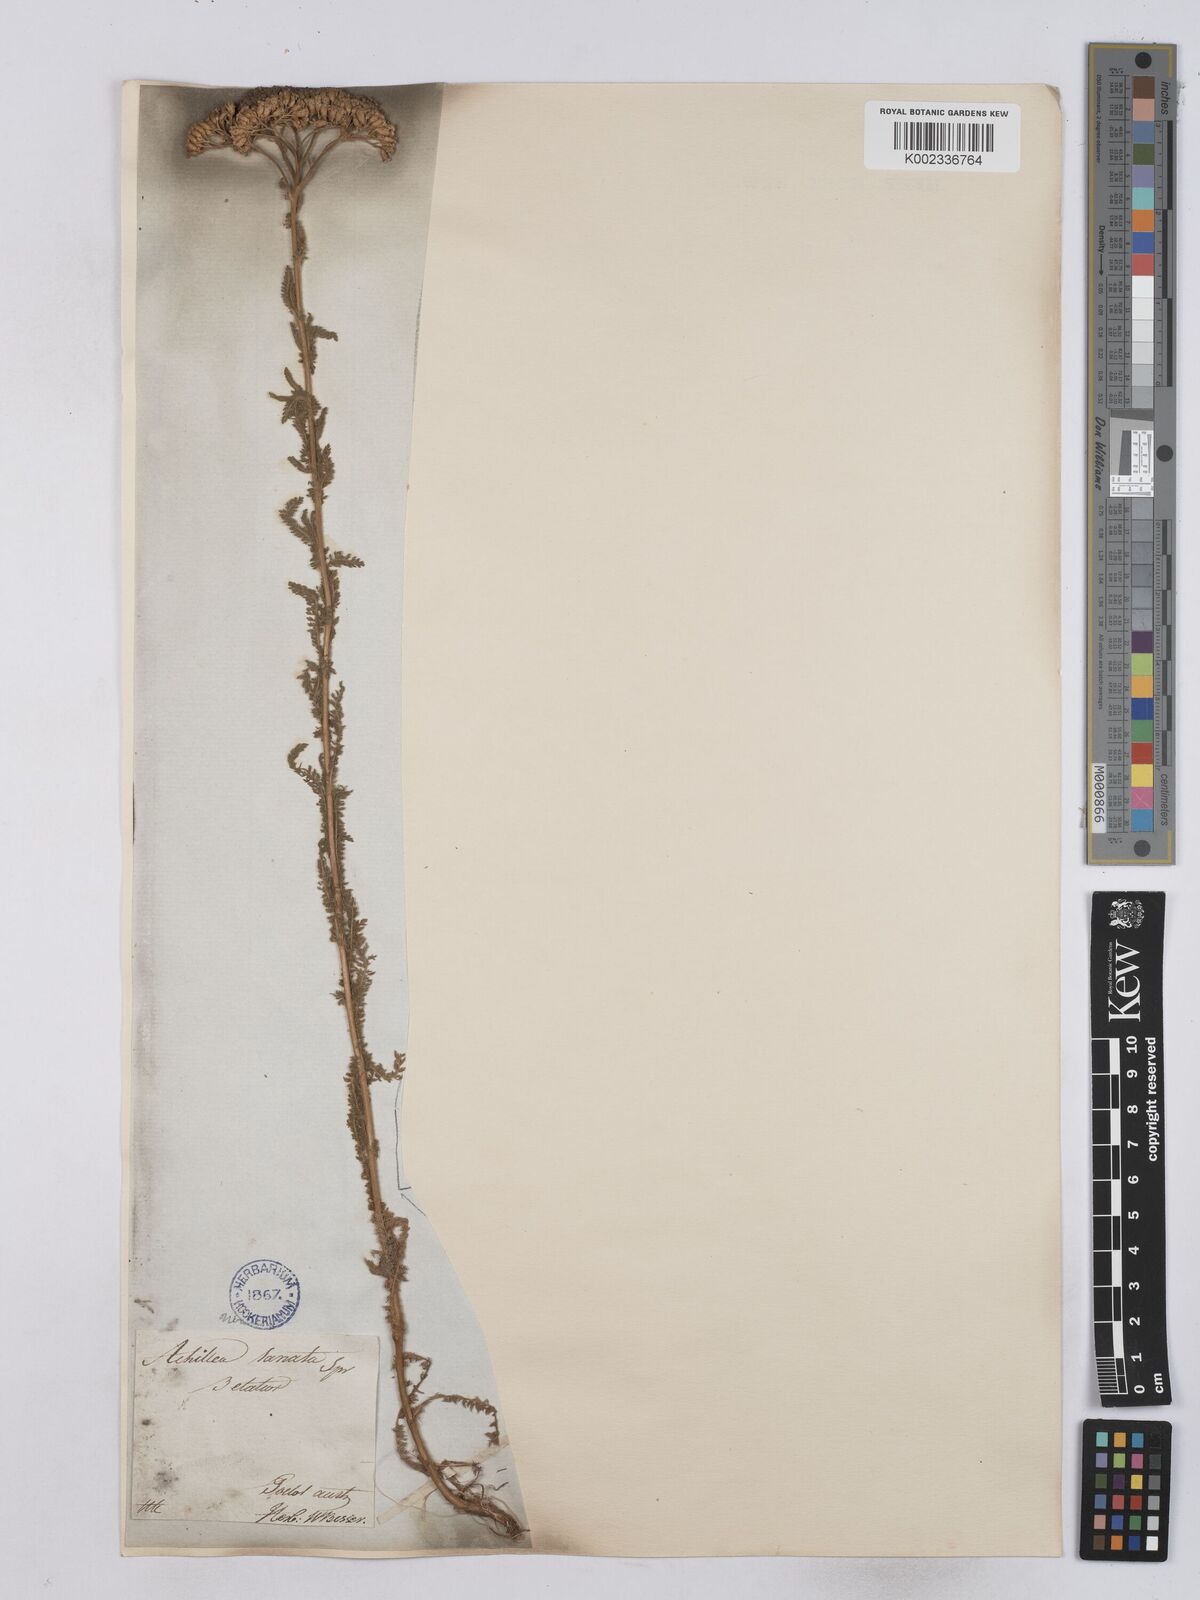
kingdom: Plantae
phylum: Tracheophyta
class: Magnoliopsida
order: Asterales
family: Asteraceae
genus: Achillea
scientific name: Achillea collina
